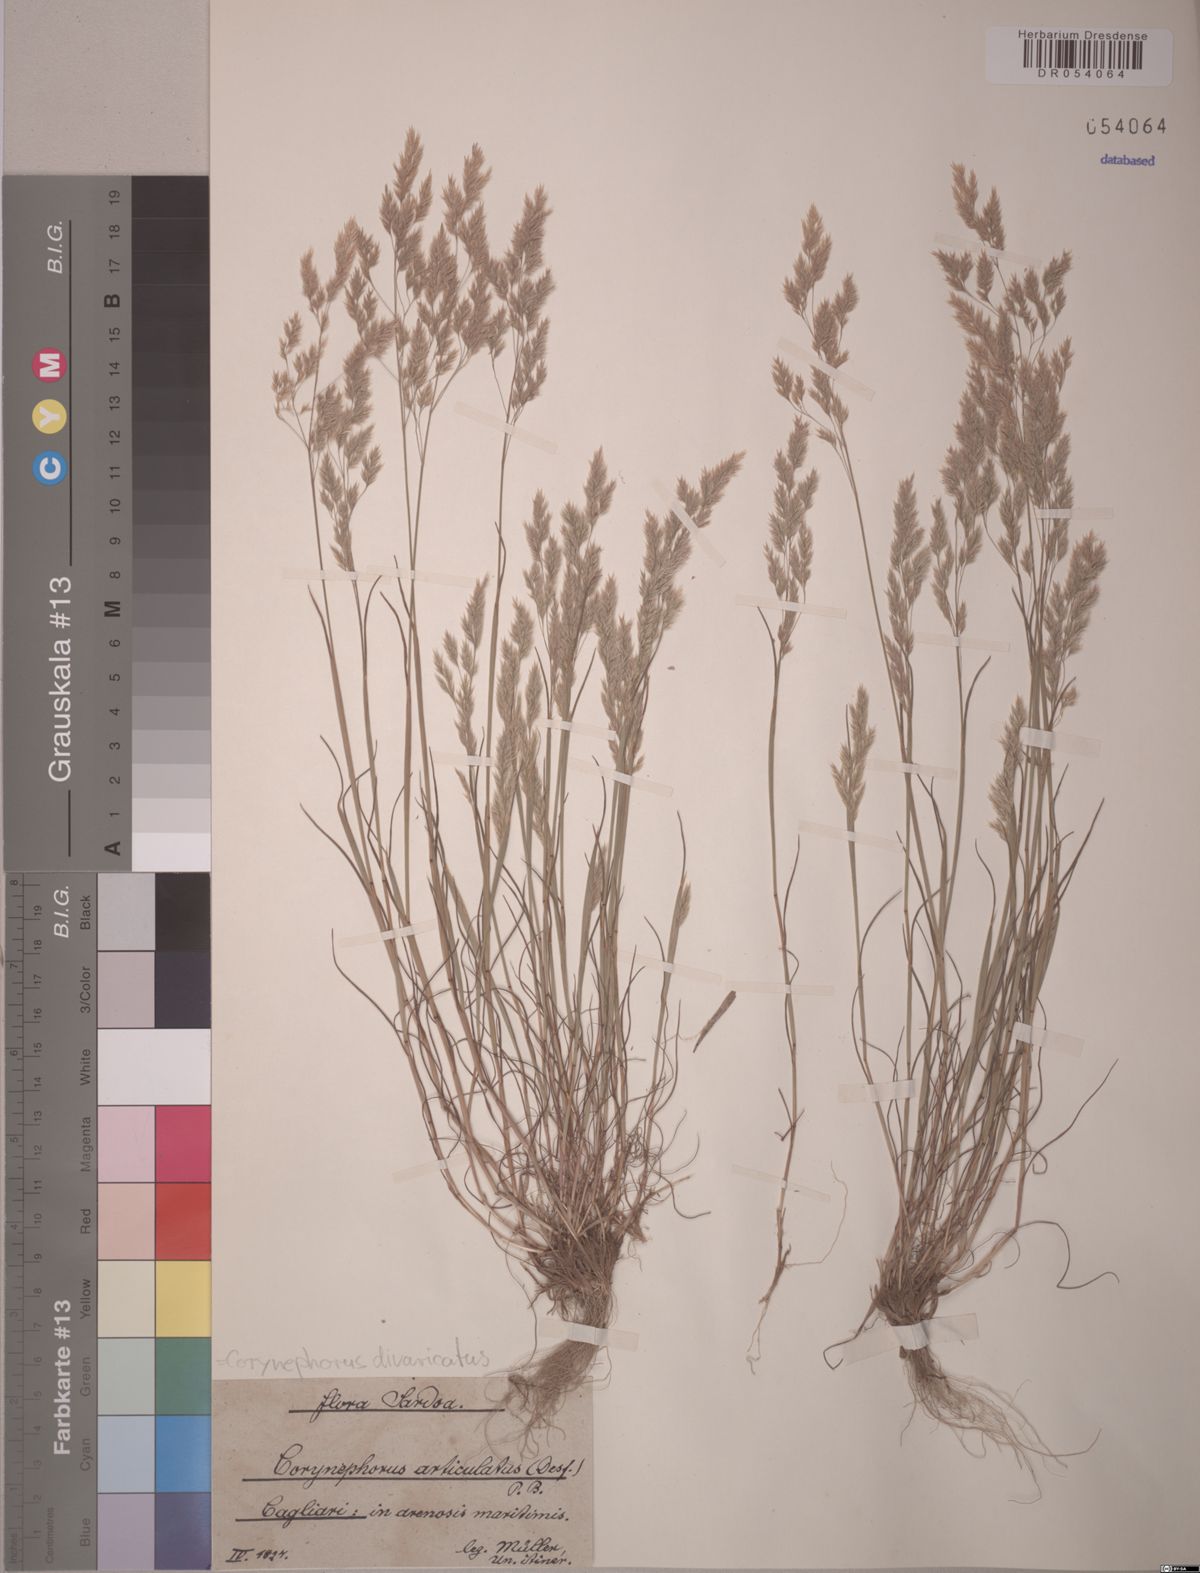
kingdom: Plantae
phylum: Tracheophyta
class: Liliopsida
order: Poales
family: Poaceae
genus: Corynephorus
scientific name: Corynephorus divaricatus
